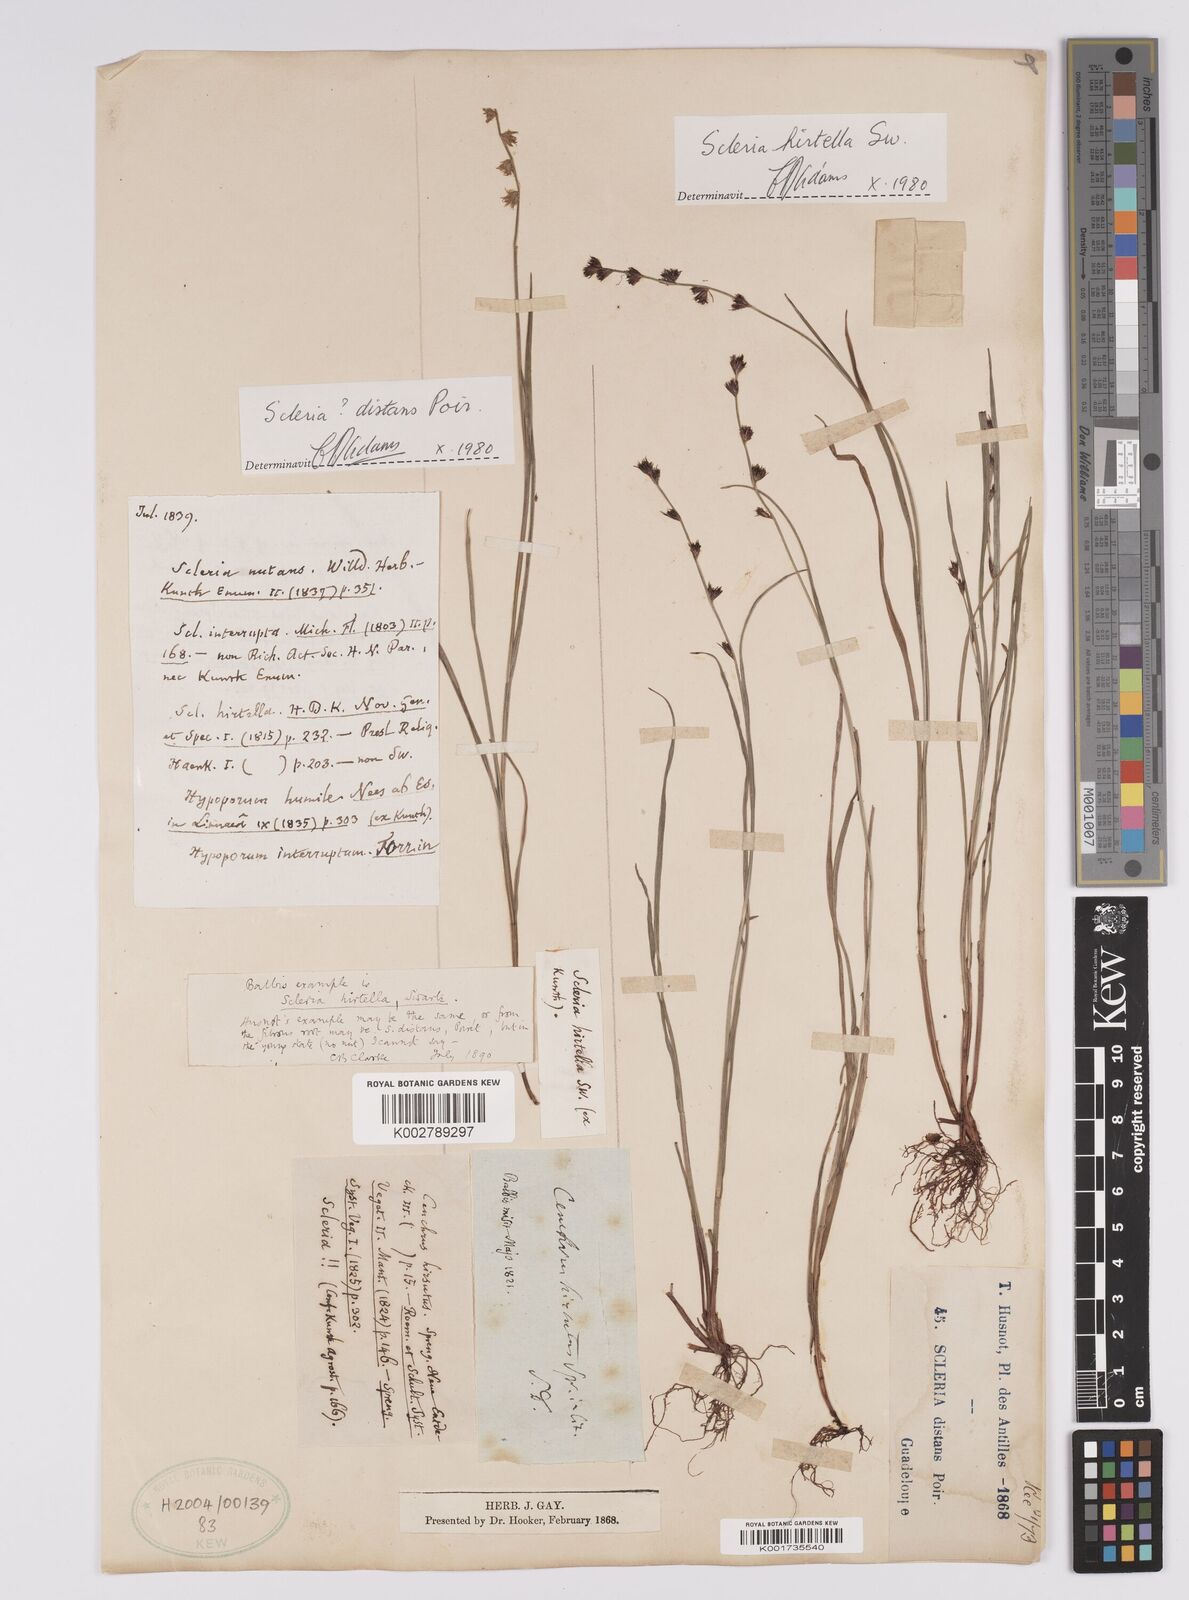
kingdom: Plantae
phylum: Tracheophyta
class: Liliopsida
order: Poales
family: Cyperaceae
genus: Scleria
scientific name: Scleria hirtella
